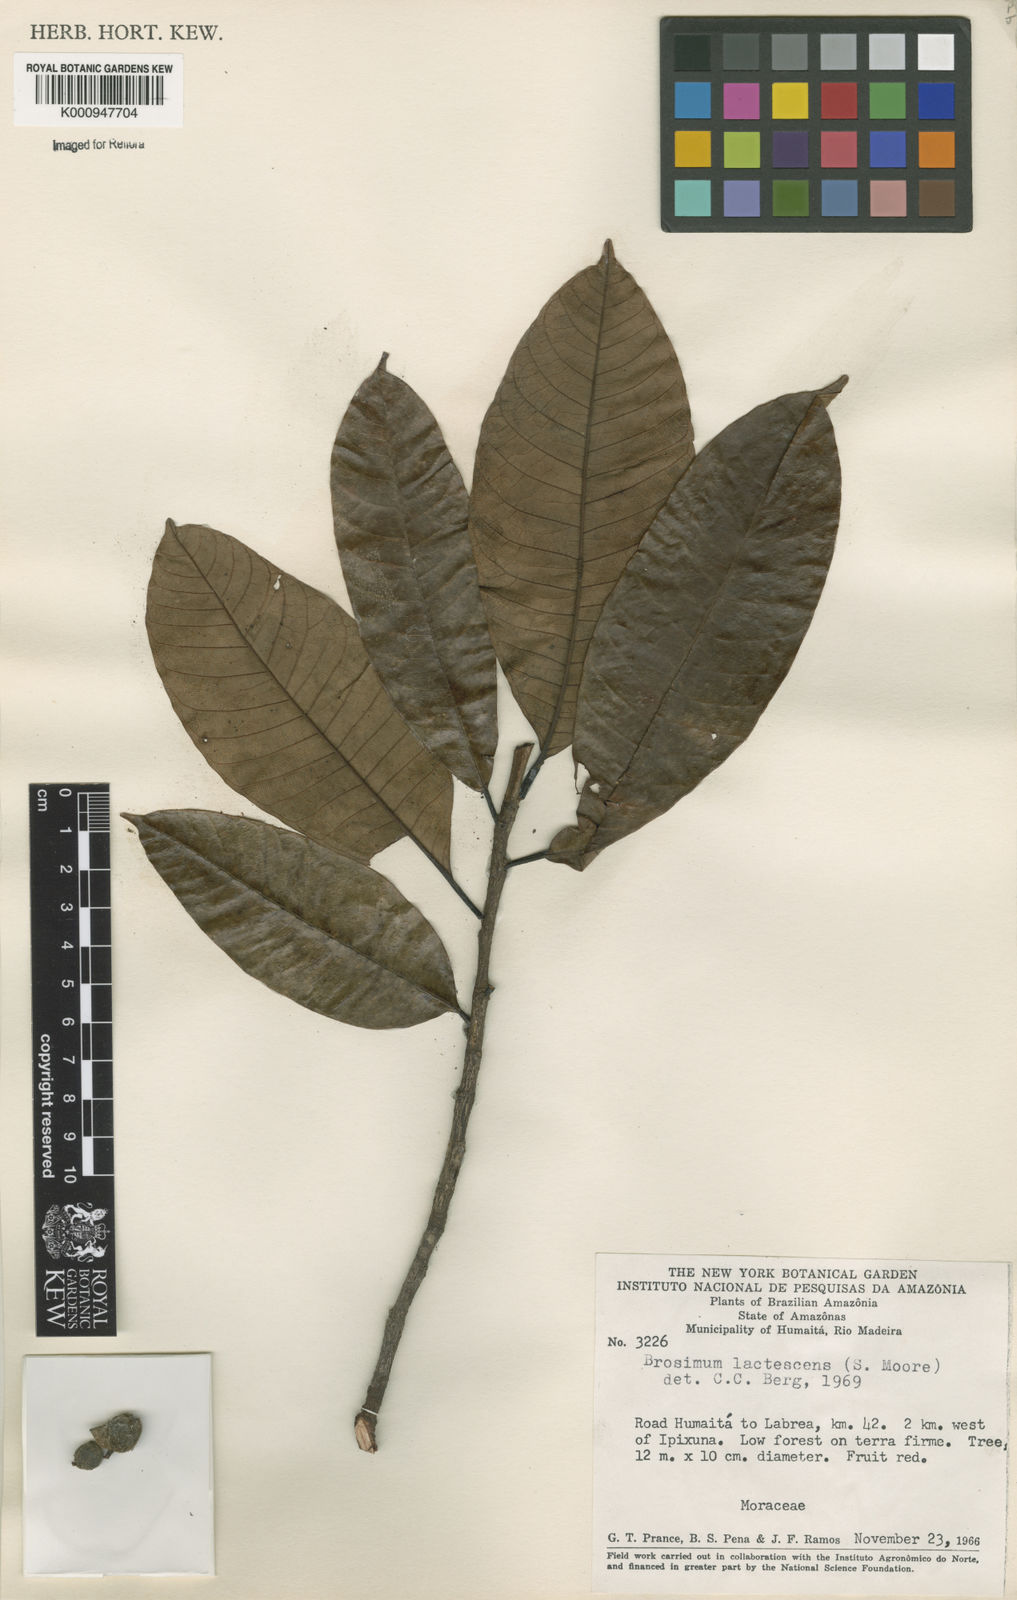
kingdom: Plantae
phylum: Tracheophyta
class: Magnoliopsida
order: Rosales
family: Moraceae
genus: Brosimum
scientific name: Brosimum lactescens
